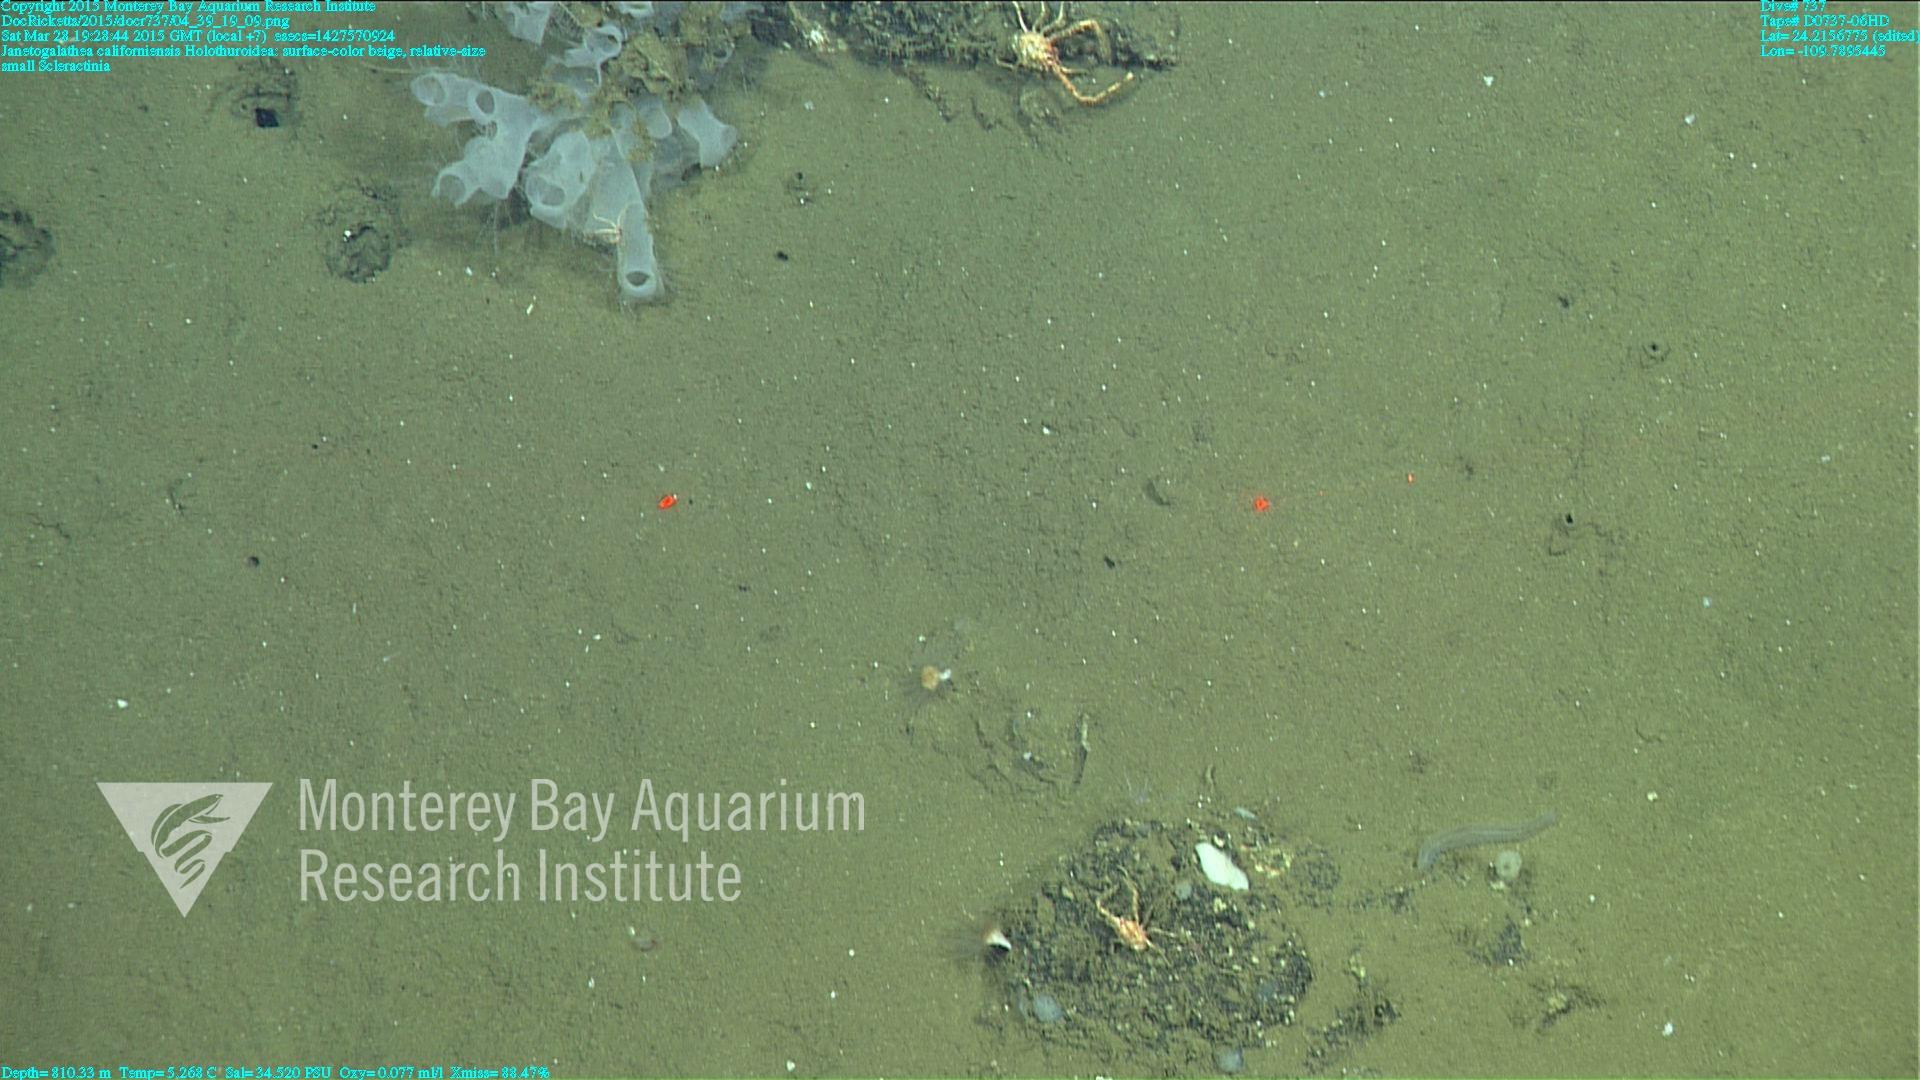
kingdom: Animalia
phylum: Cnidaria
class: Anthozoa
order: Scleractinia
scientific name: Scleractinia
